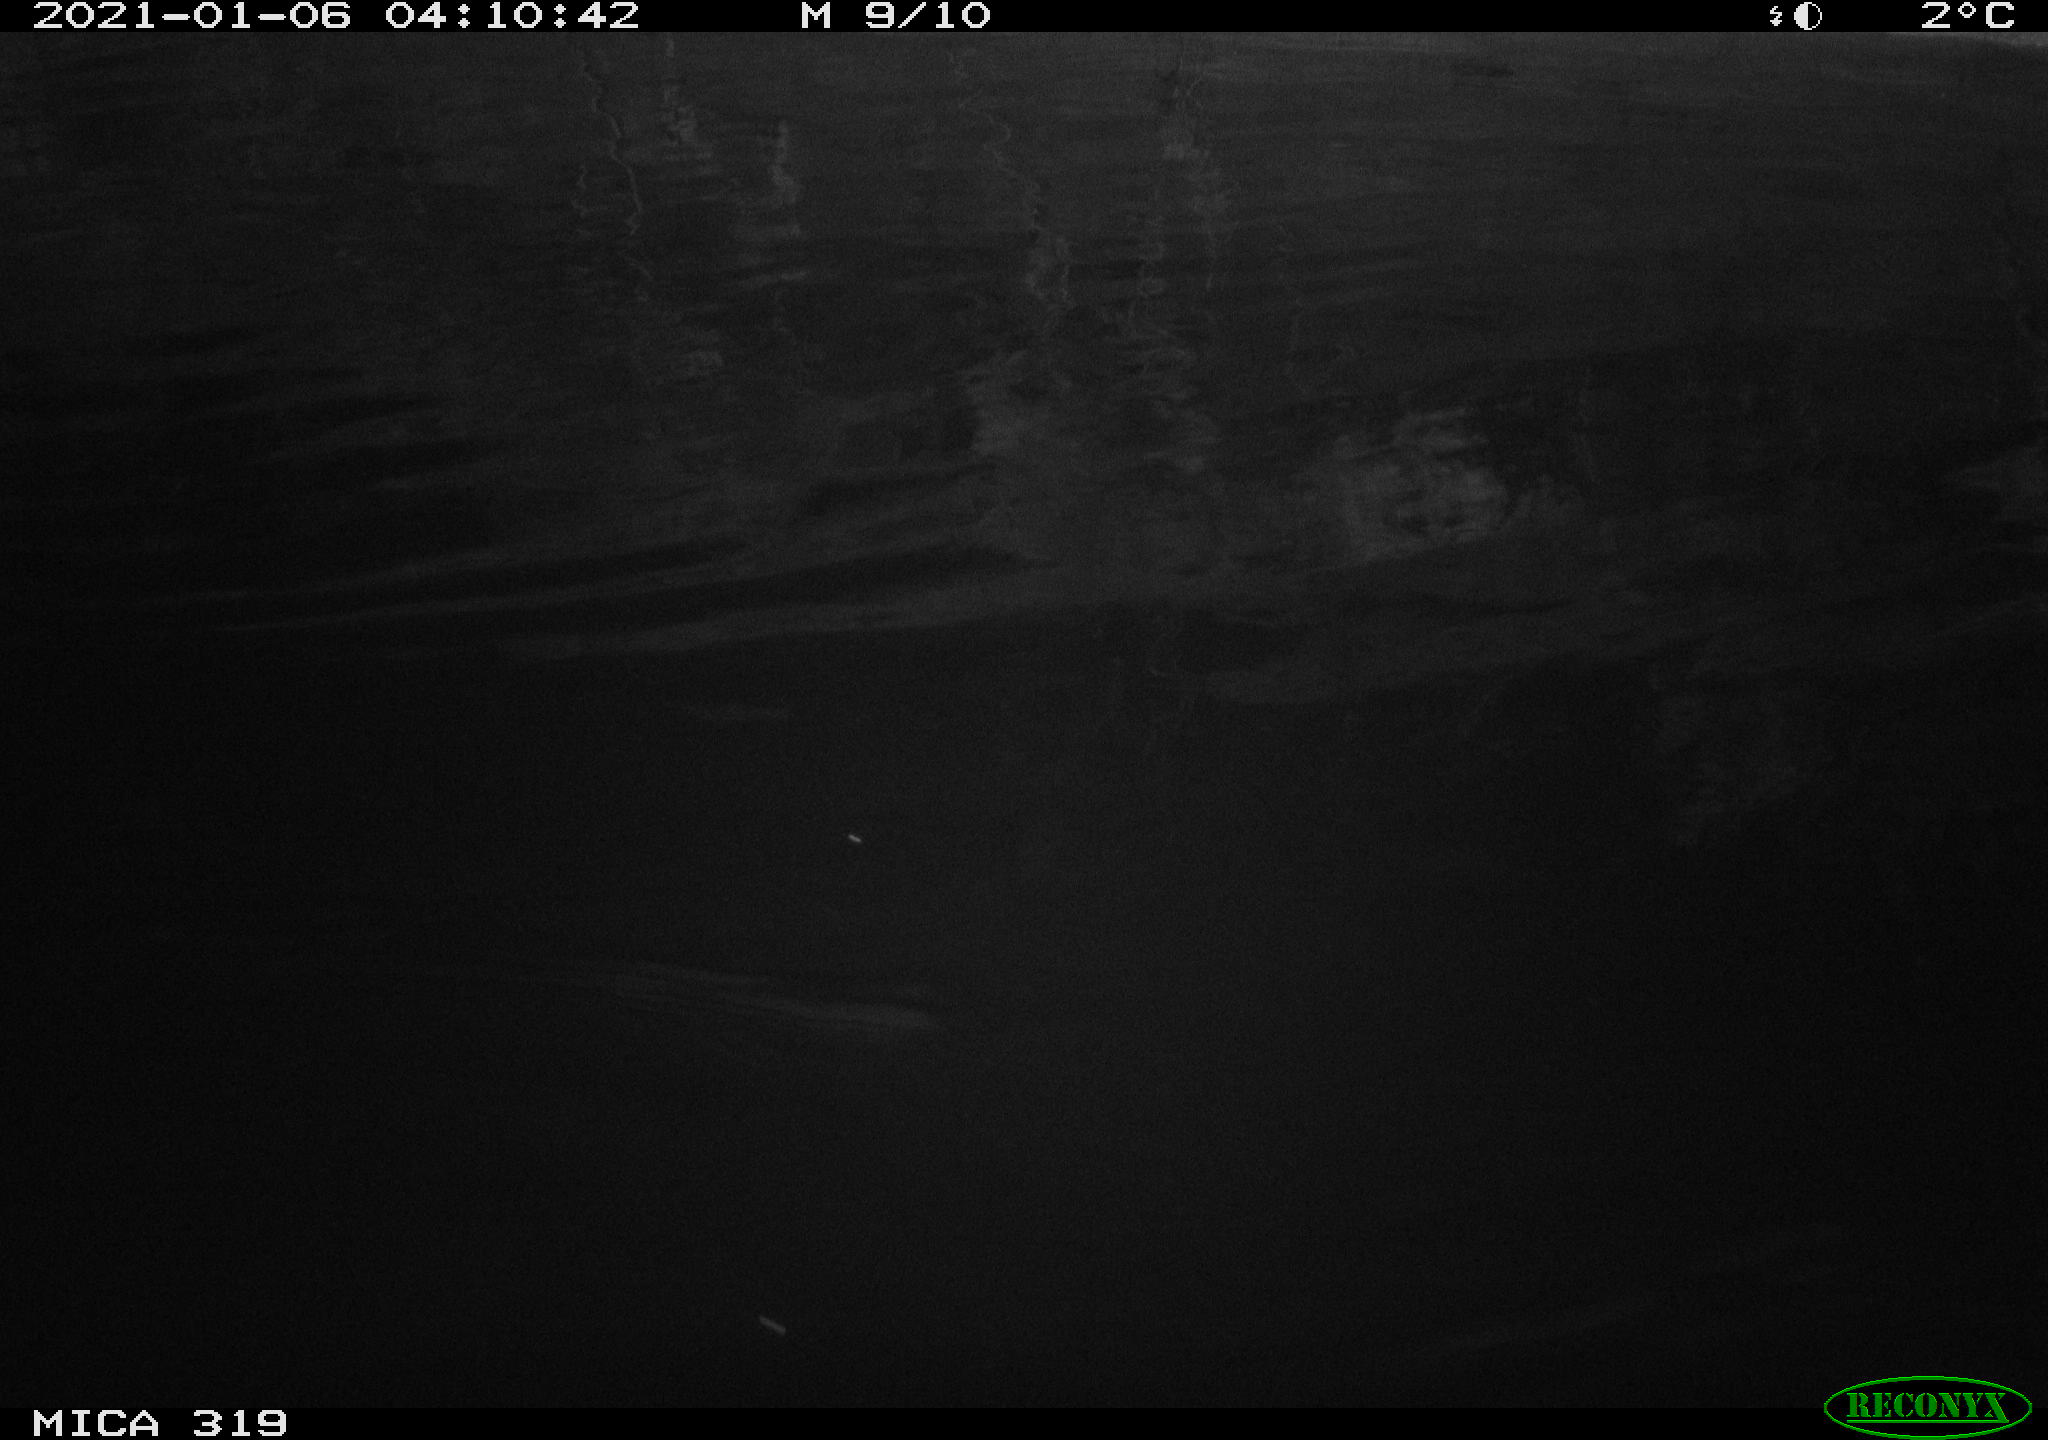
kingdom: Animalia
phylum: Chordata
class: Aves
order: Anseriformes
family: Anatidae
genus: Anas
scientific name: Anas platyrhynchos
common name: Mallard
